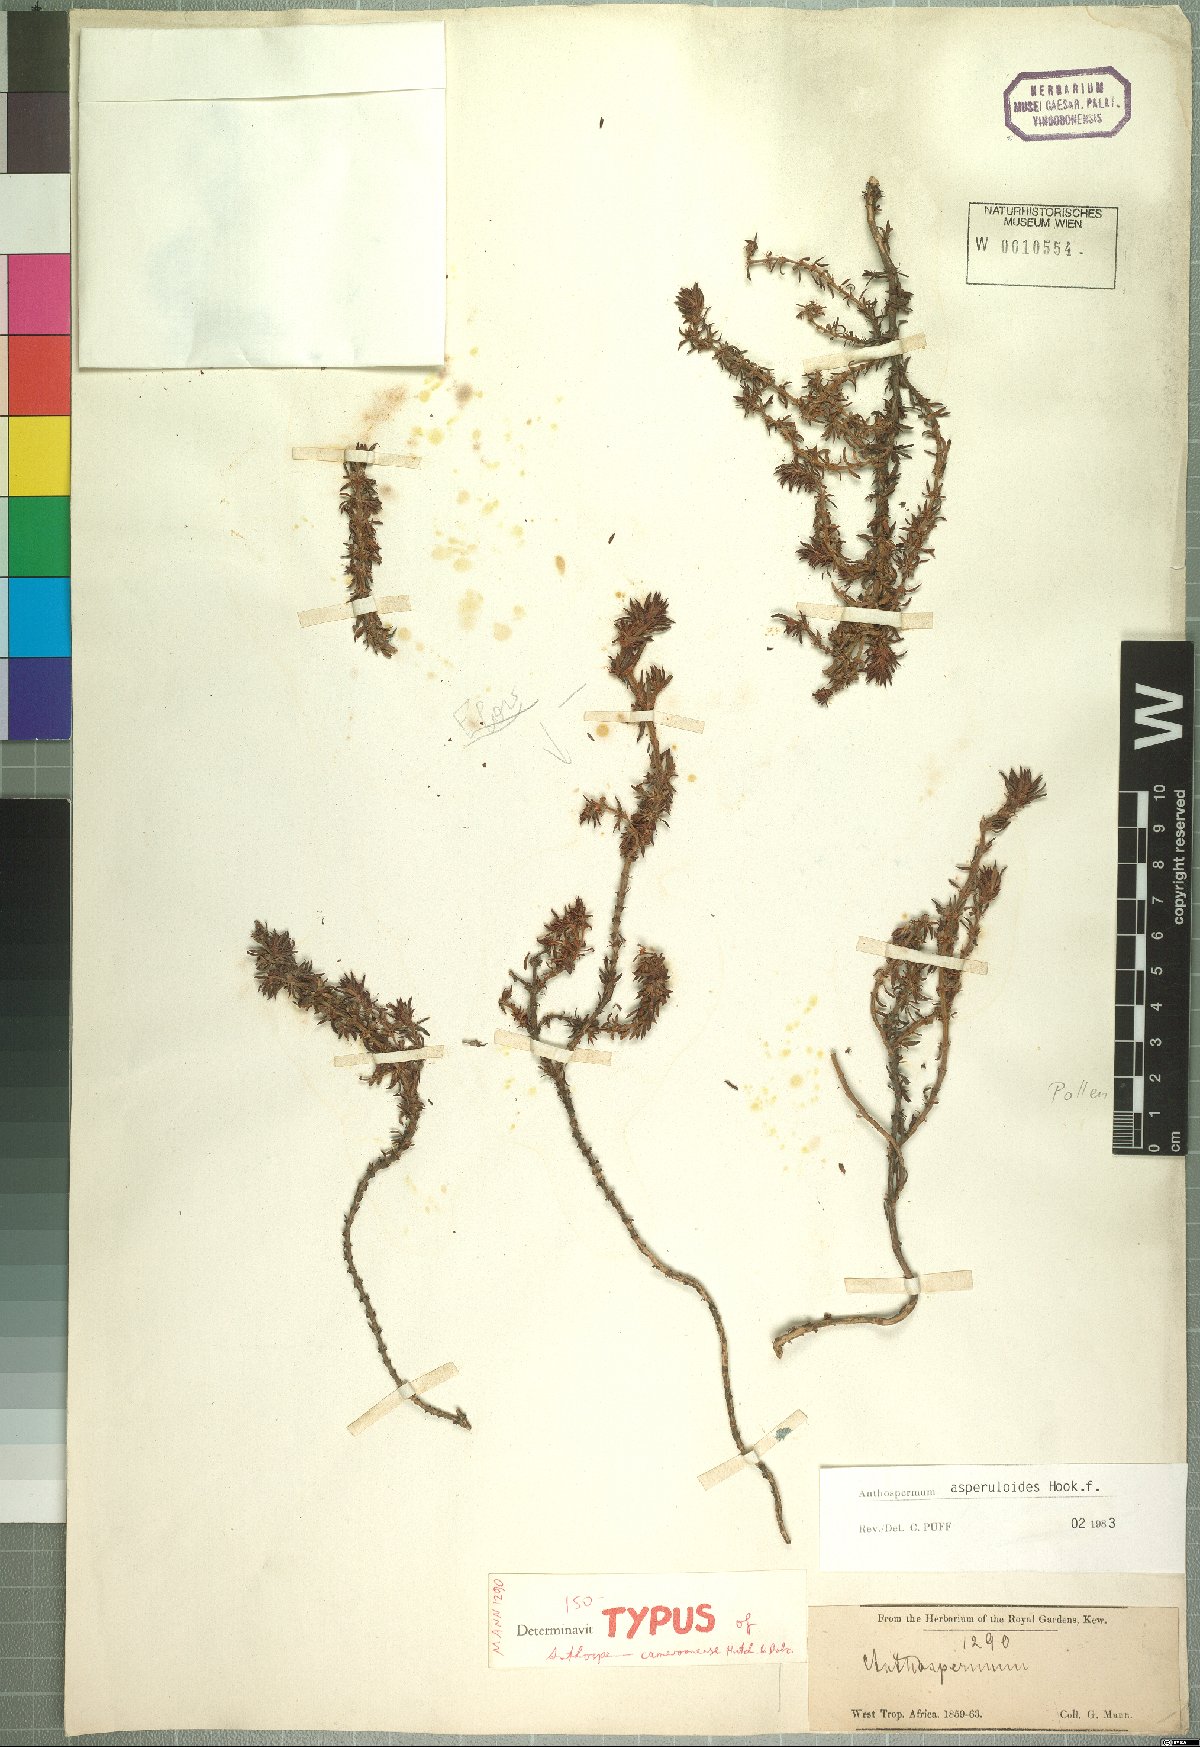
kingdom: Plantae
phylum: Tracheophyta
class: Magnoliopsida
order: Gentianales
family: Rubiaceae
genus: Anthospermum
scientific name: Anthospermum asperuloides
